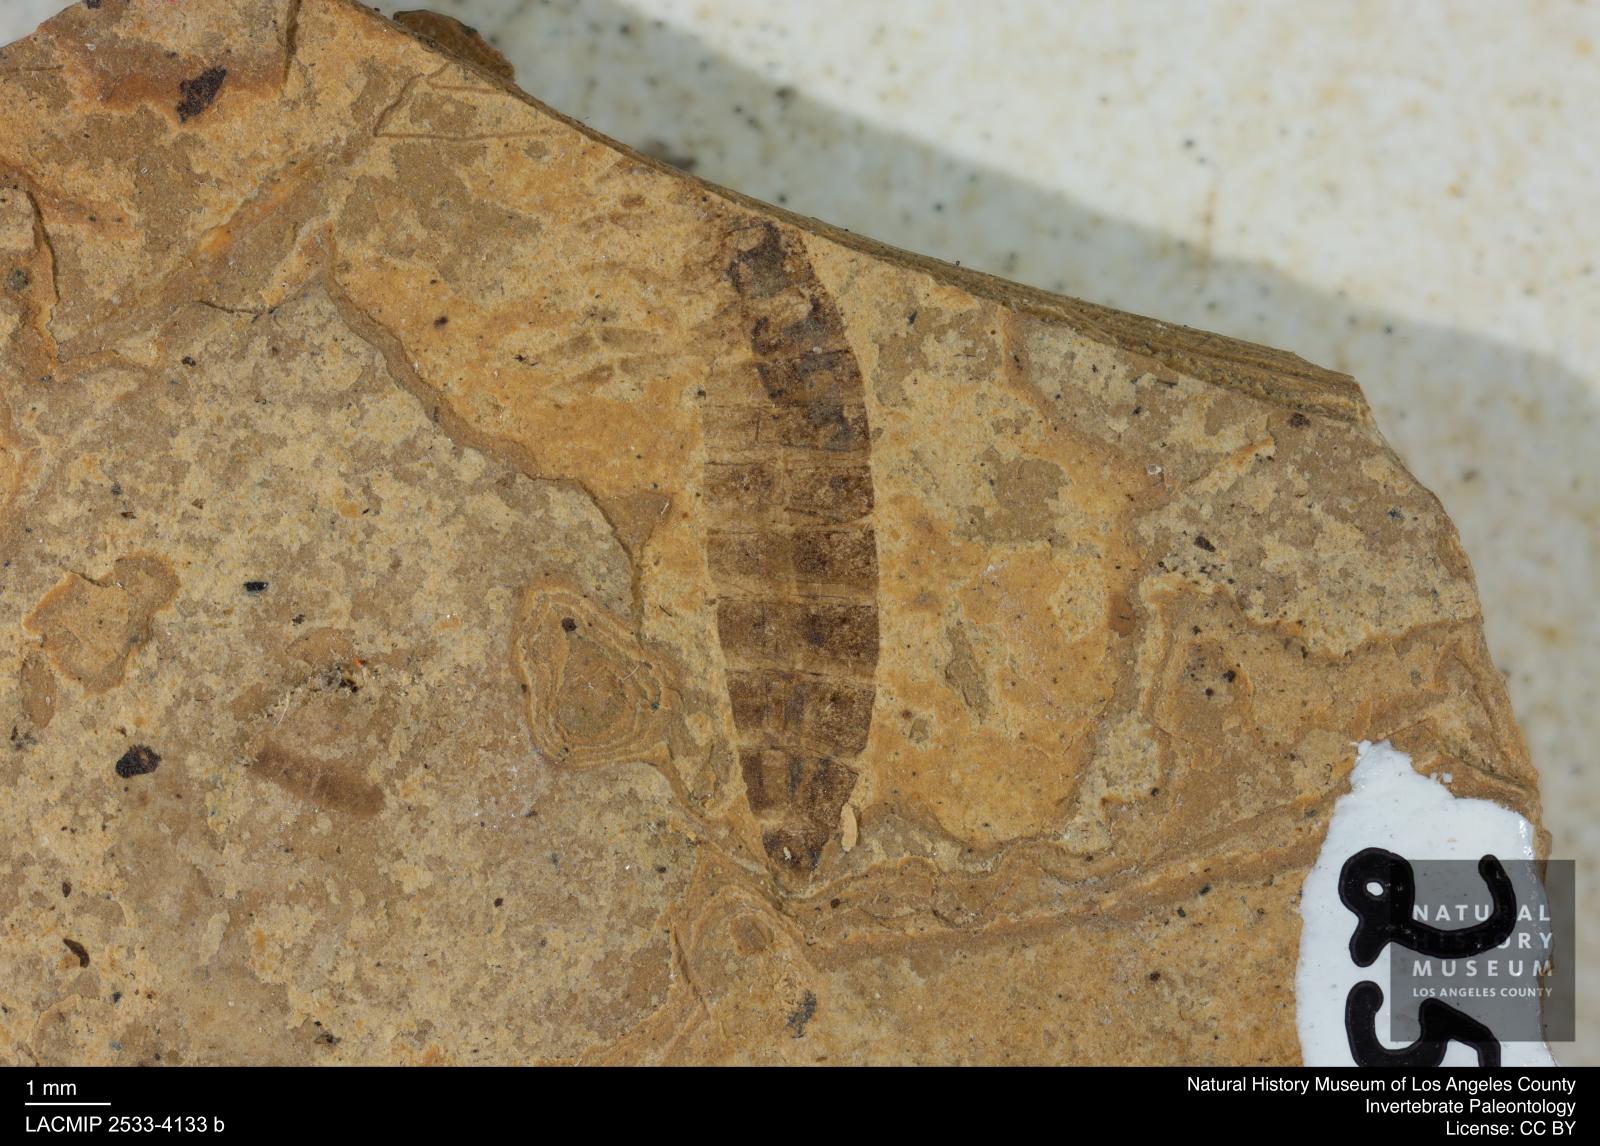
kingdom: Animalia
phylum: Arthropoda
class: Insecta
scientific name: Insecta
